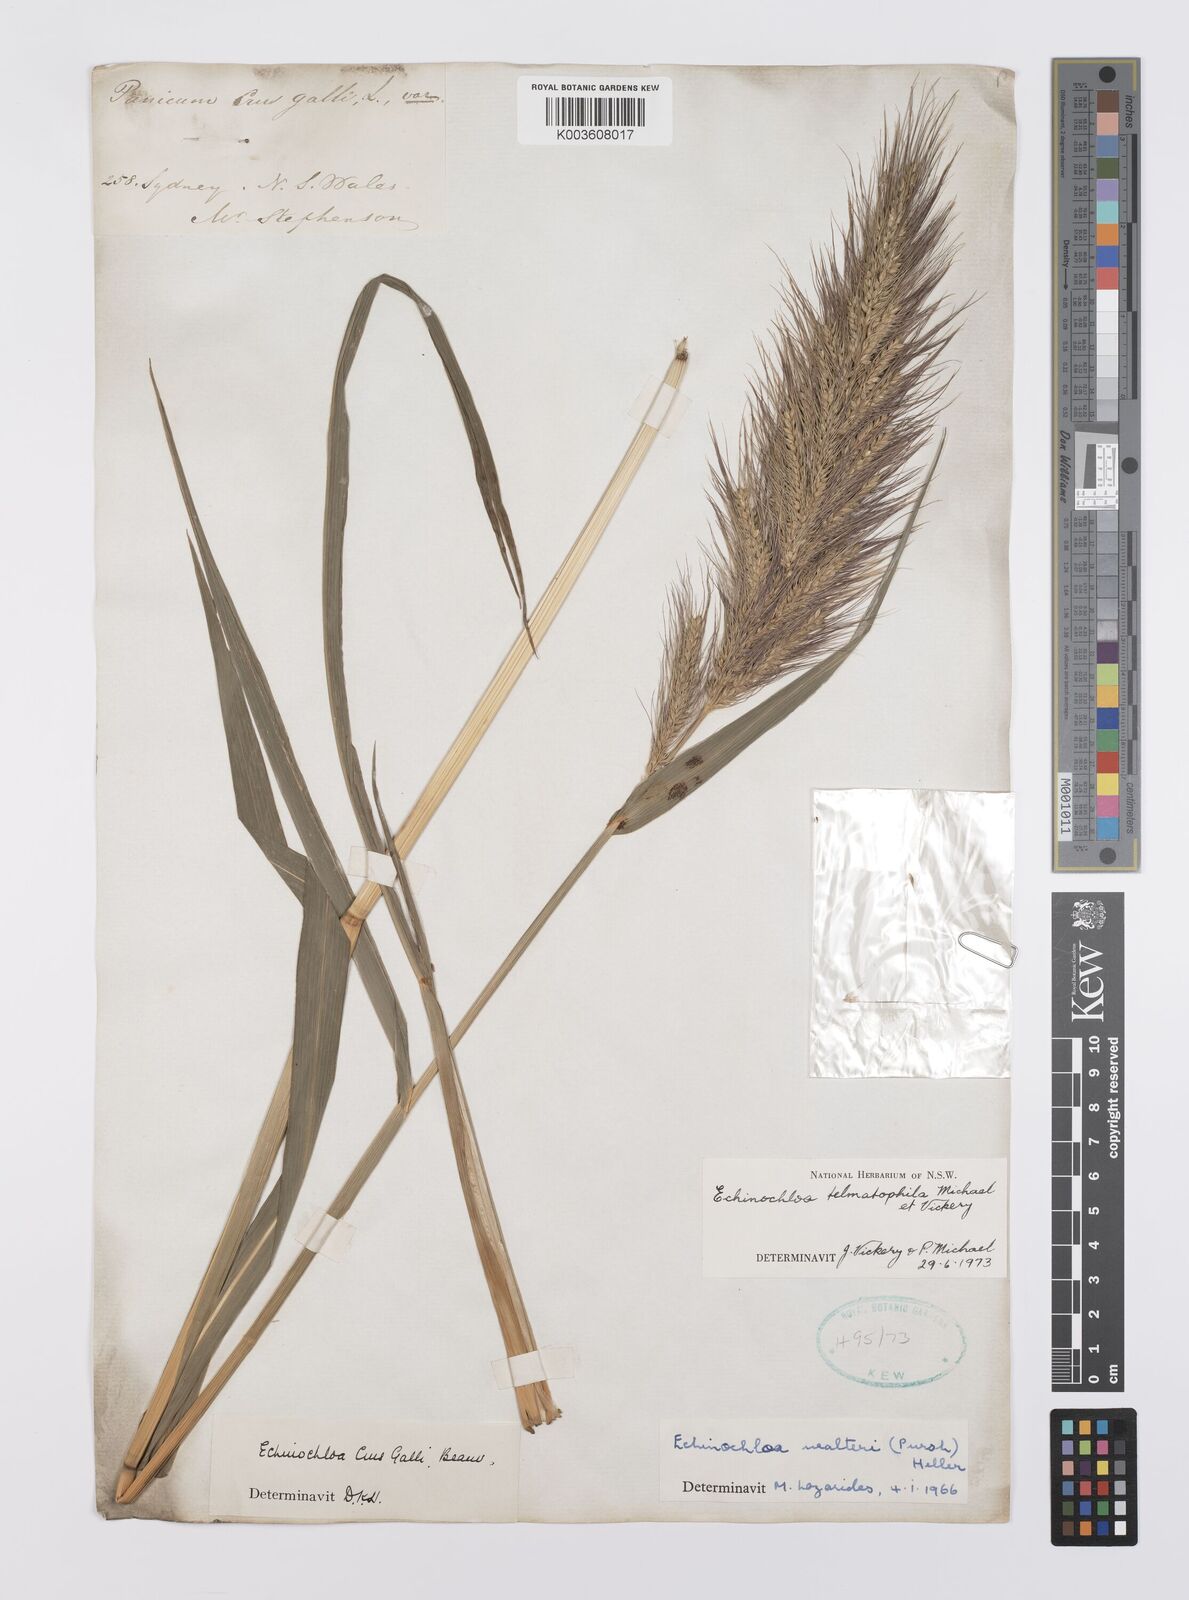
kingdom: Plantae
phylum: Tracheophyta
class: Liliopsida
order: Poales
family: Poaceae
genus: Echinochloa
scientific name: Echinochloa crus-galli
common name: Cockspur
